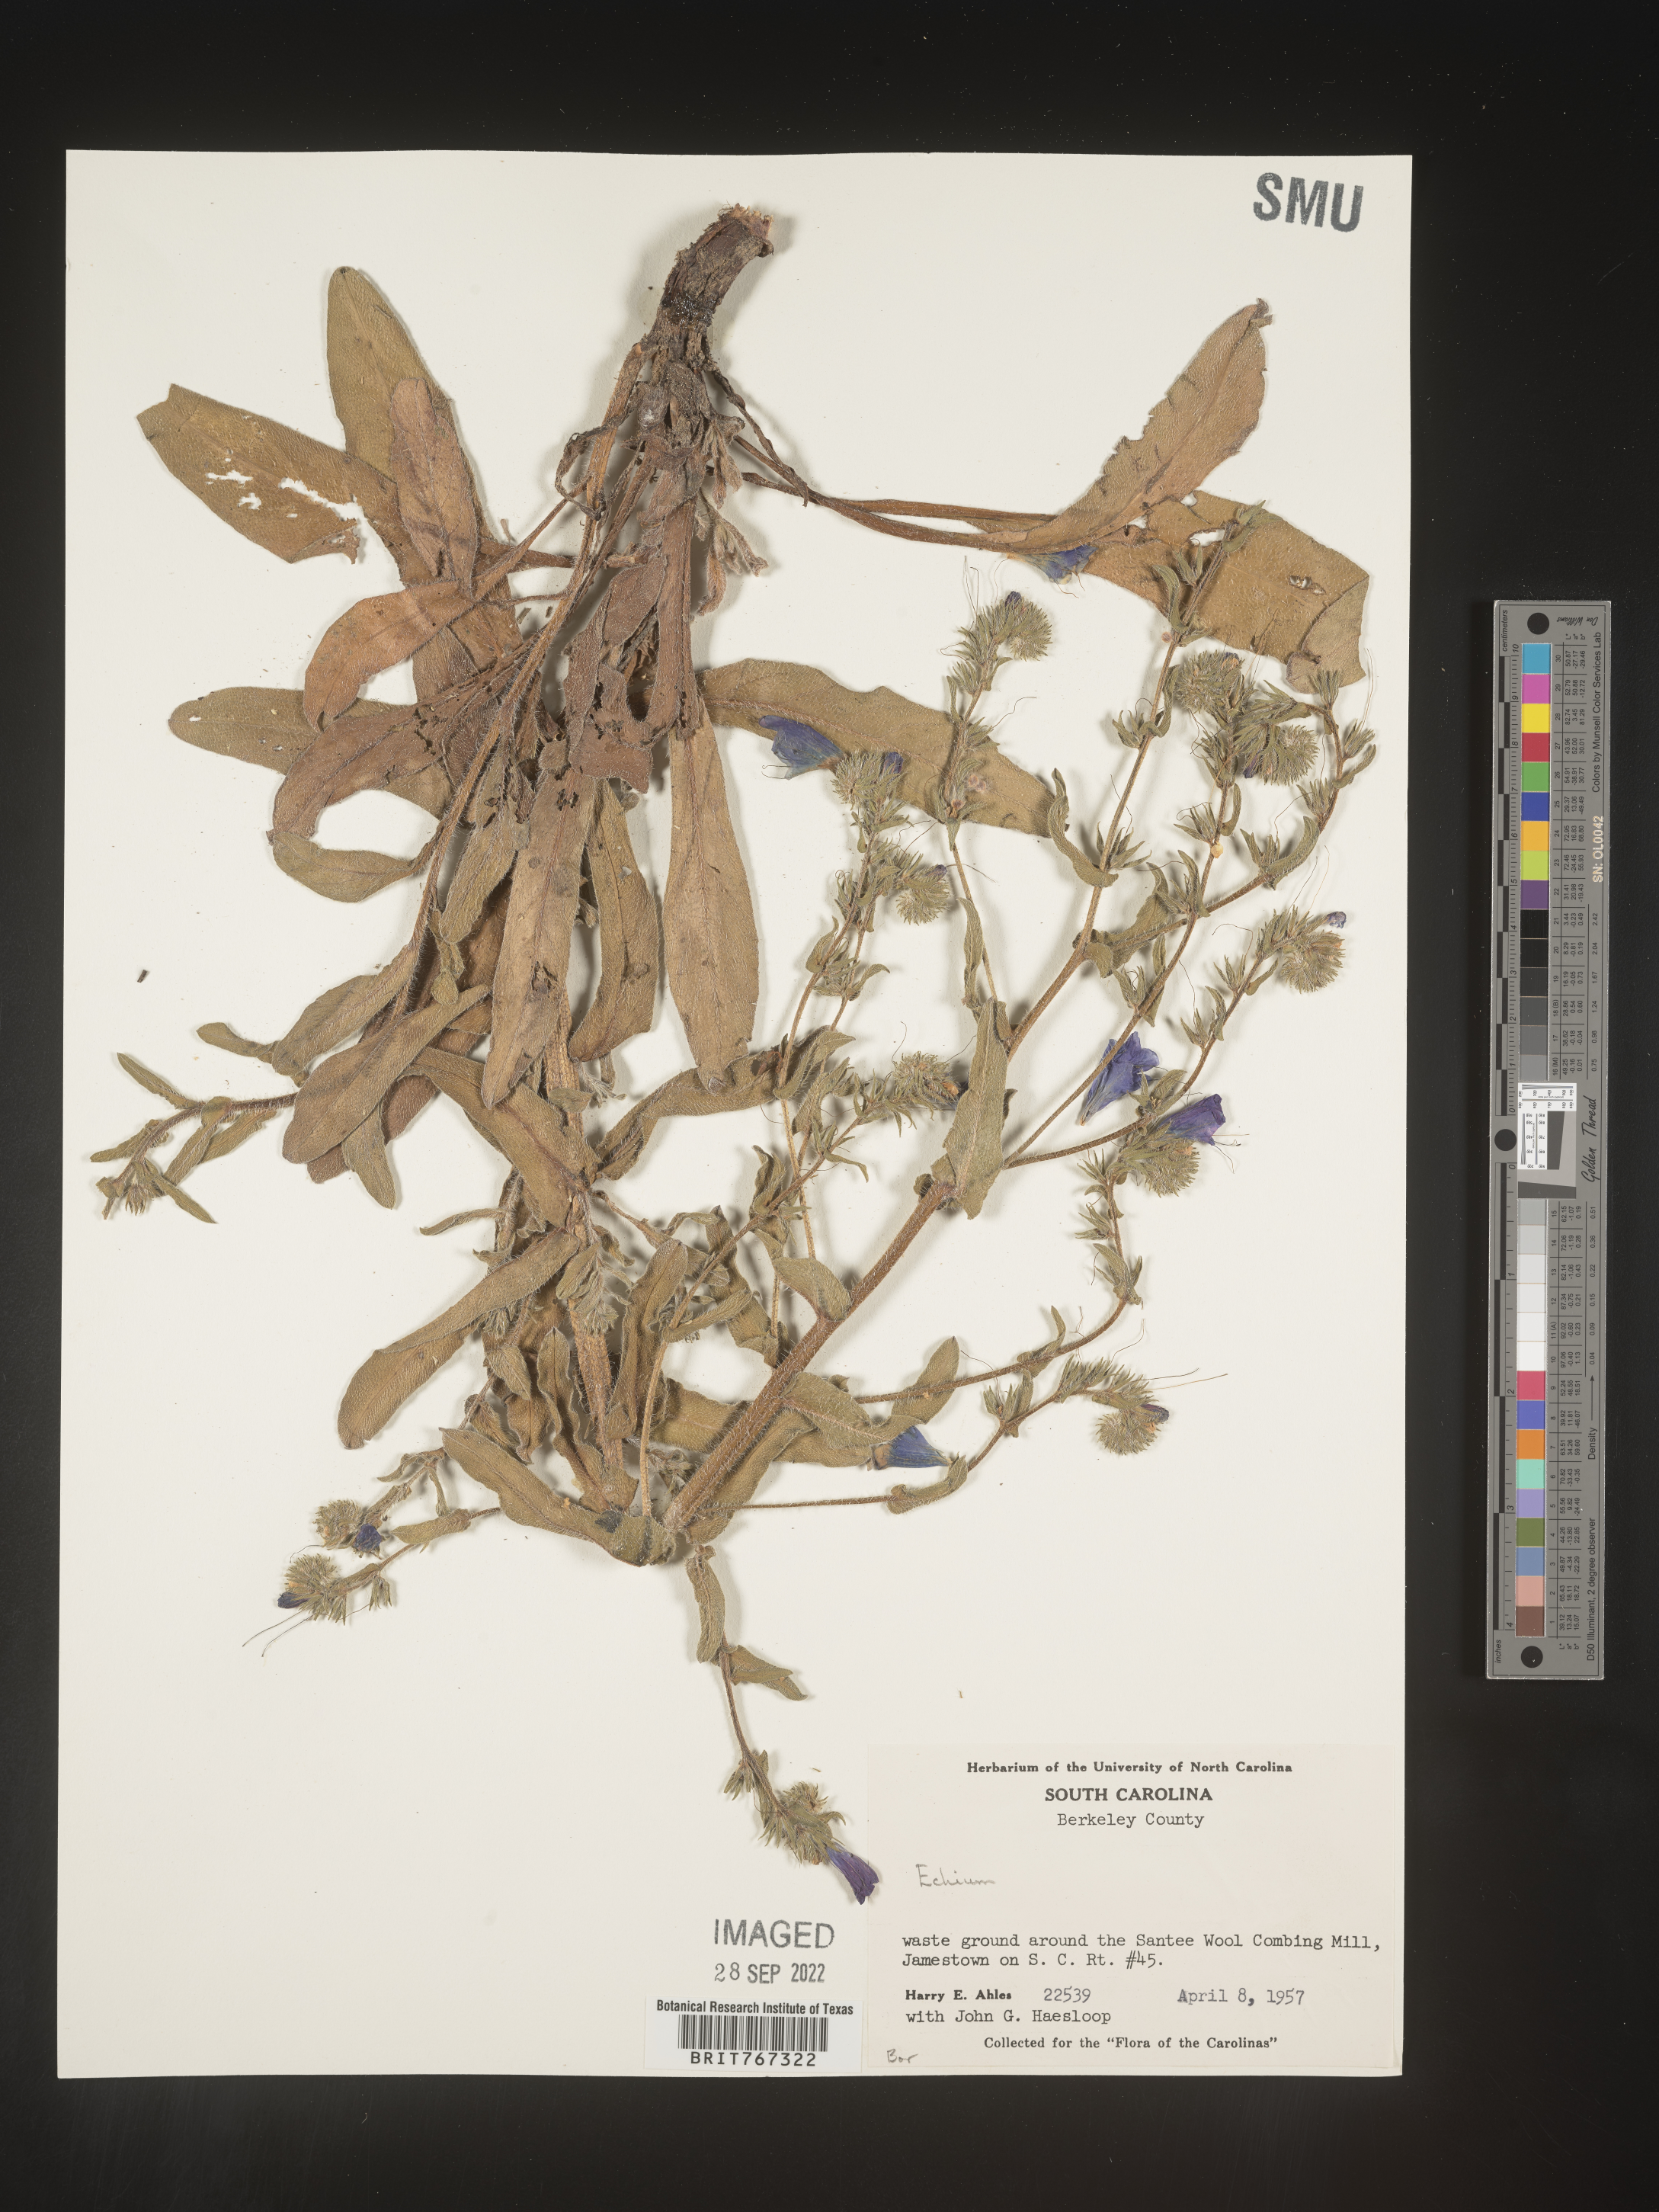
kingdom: Plantae
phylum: Tracheophyta
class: Magnoliopsida
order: Boraginales
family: Boraginaceae
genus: Echium
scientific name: Echium
